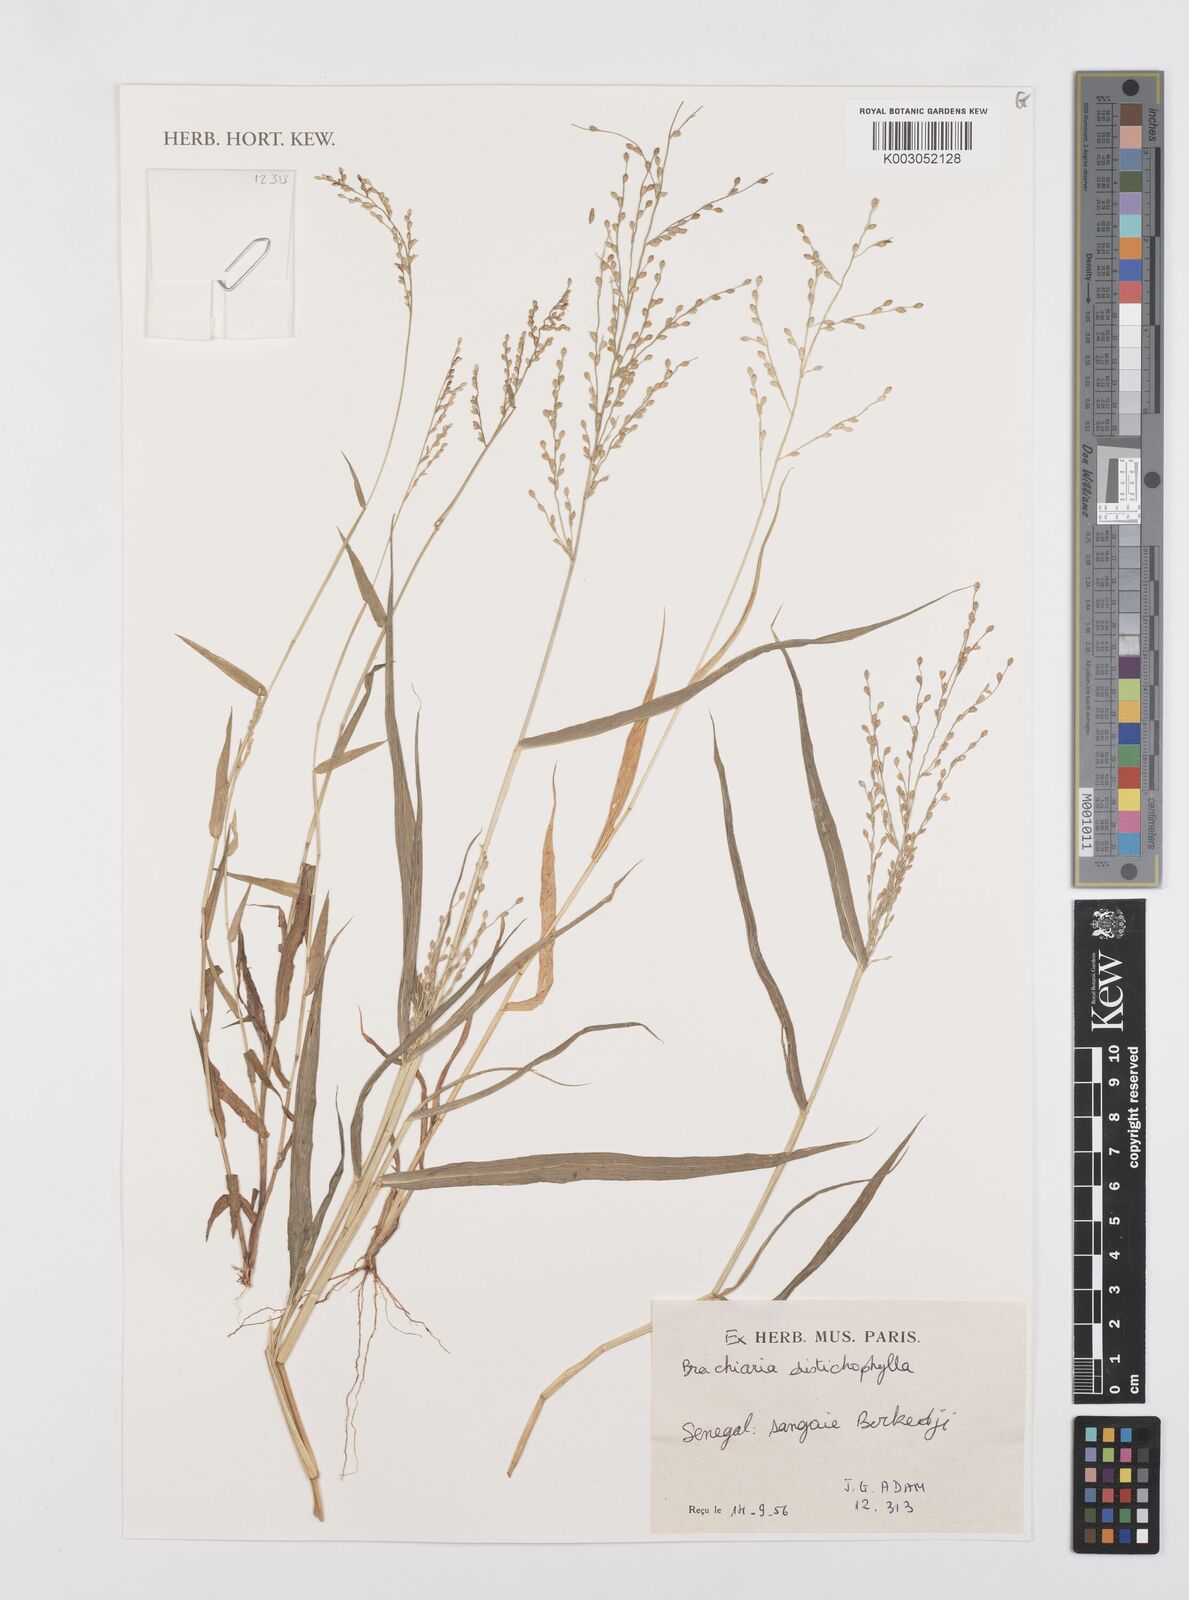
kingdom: Plantae
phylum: Tracheophyta
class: Liliopsida
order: Poales
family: Poaceae
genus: Urochloa
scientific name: Urochloa villosa
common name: Hairy signalgrass
